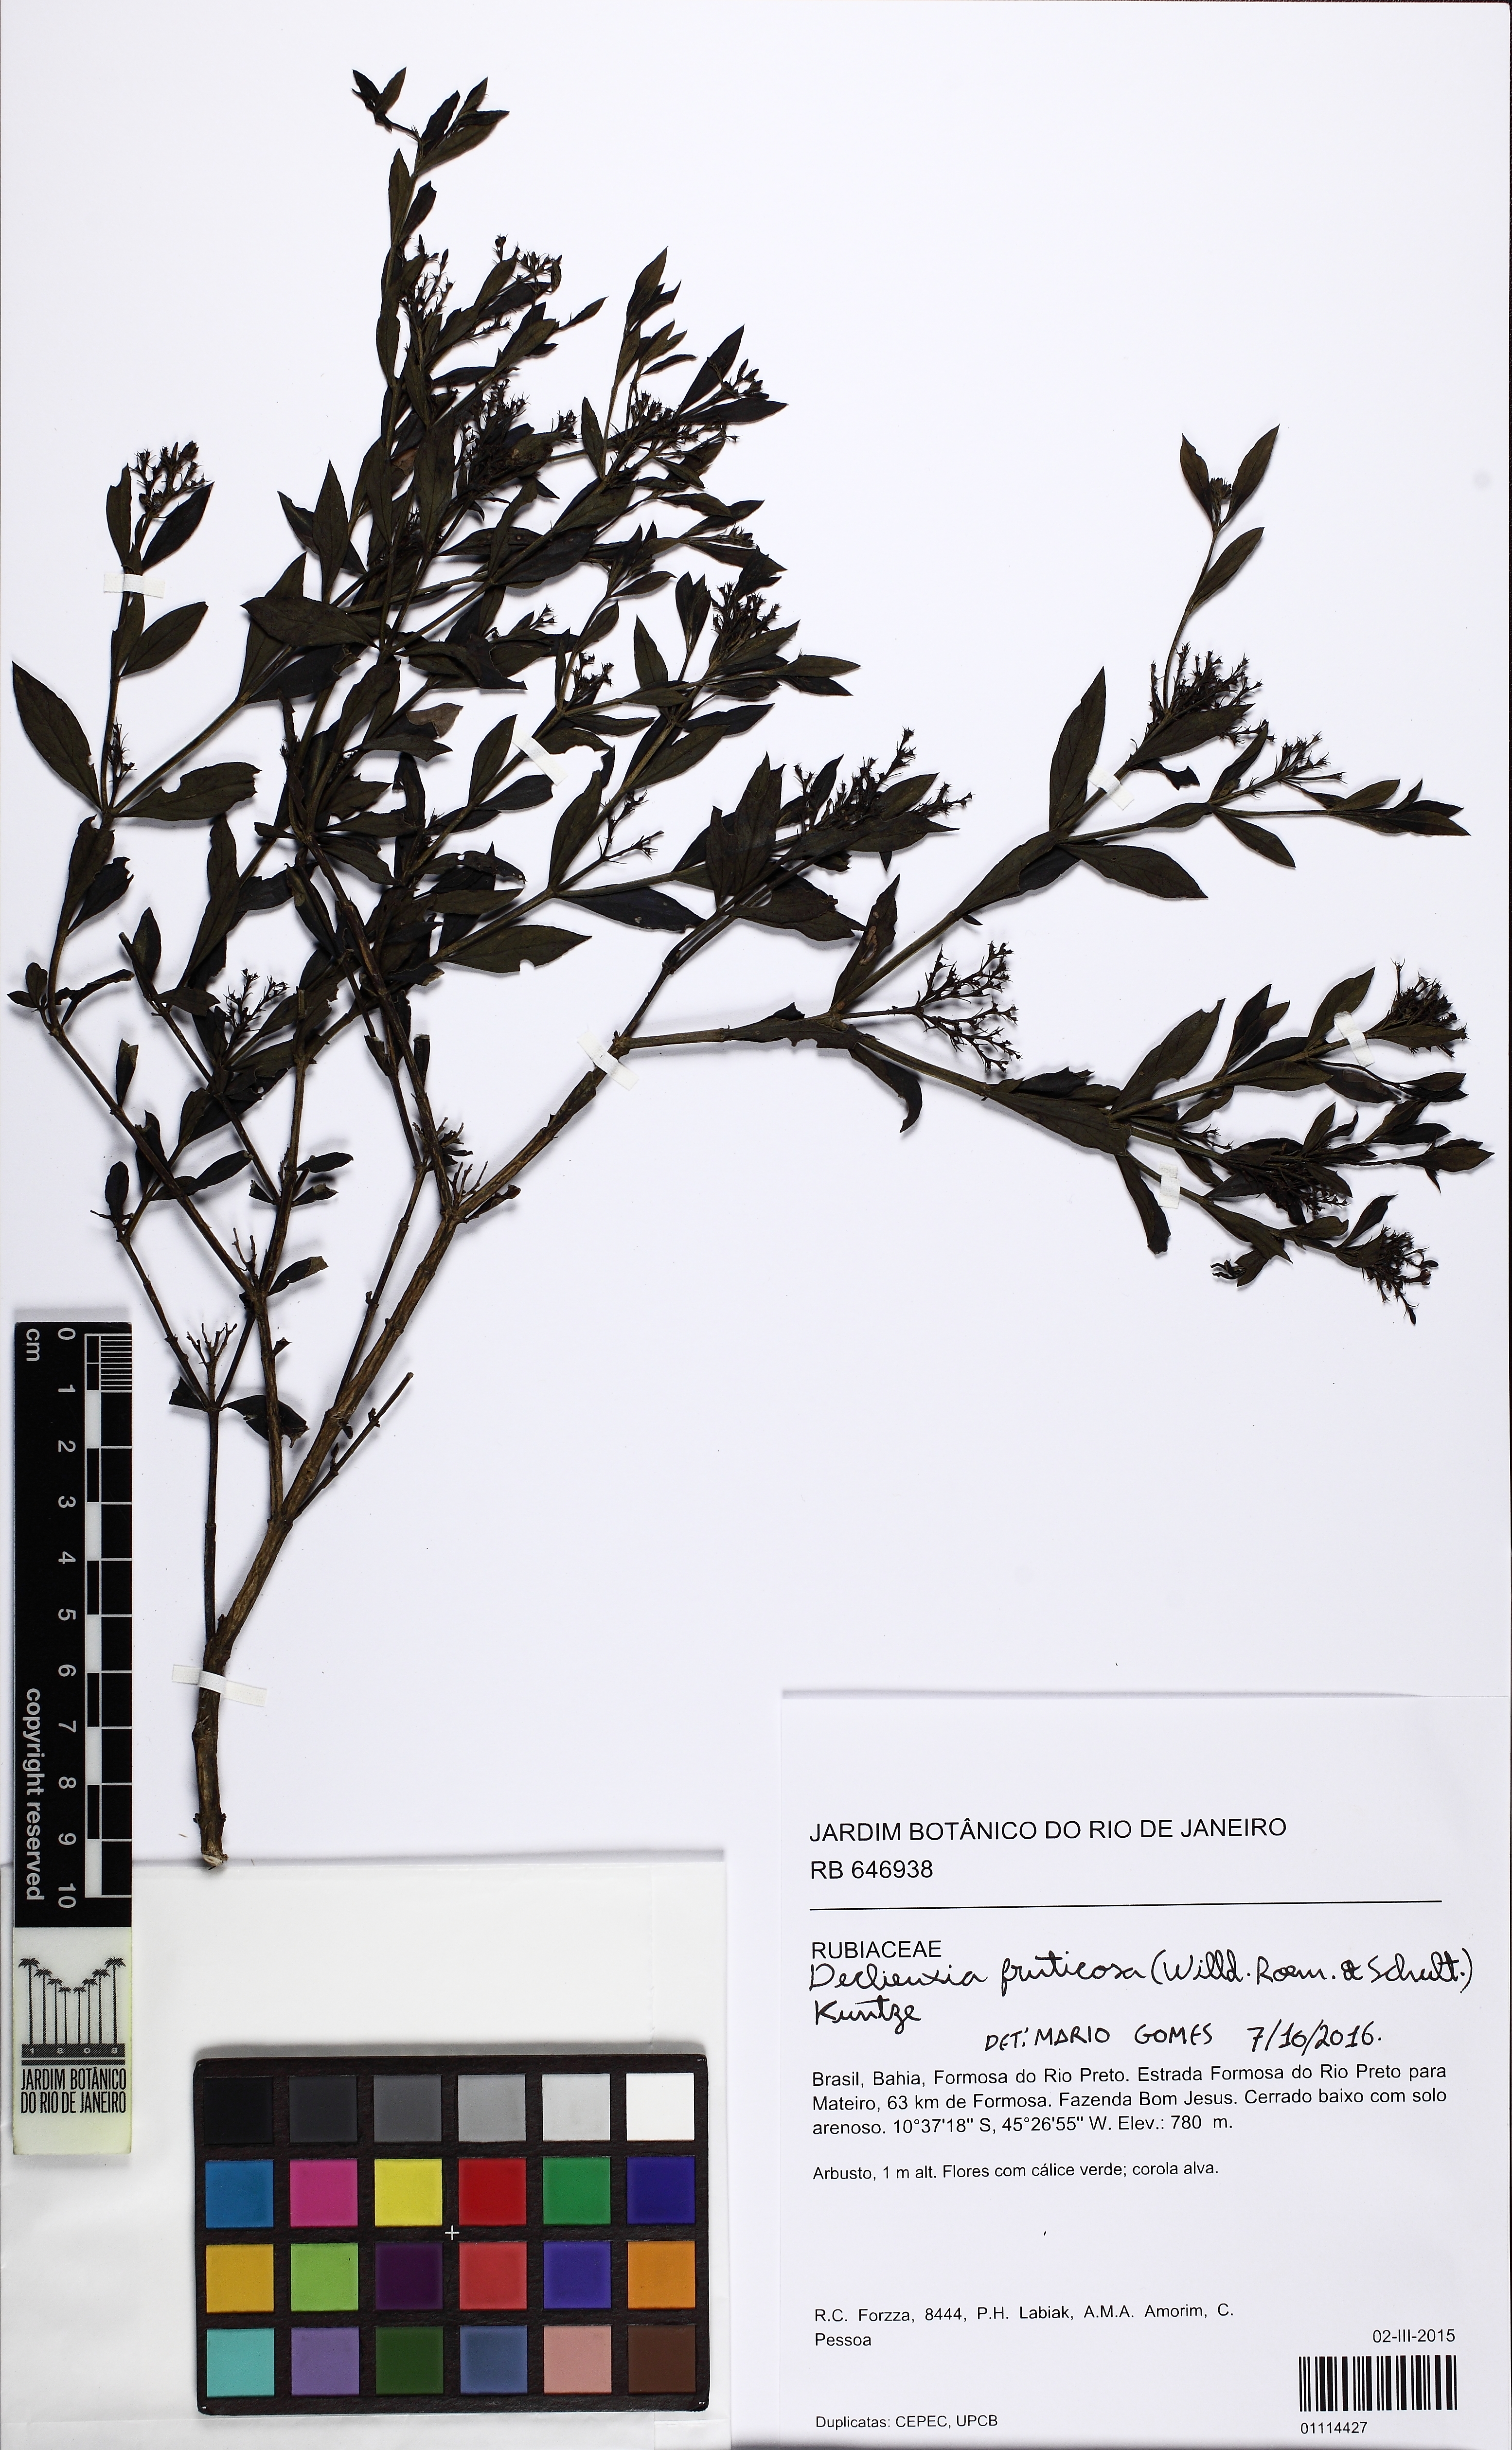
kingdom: Plantae
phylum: Tracheophyta
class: Magnoliopsida
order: Gentianales
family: Rubiaceae
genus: Declieuxia
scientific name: Declieuxia fruticosa
